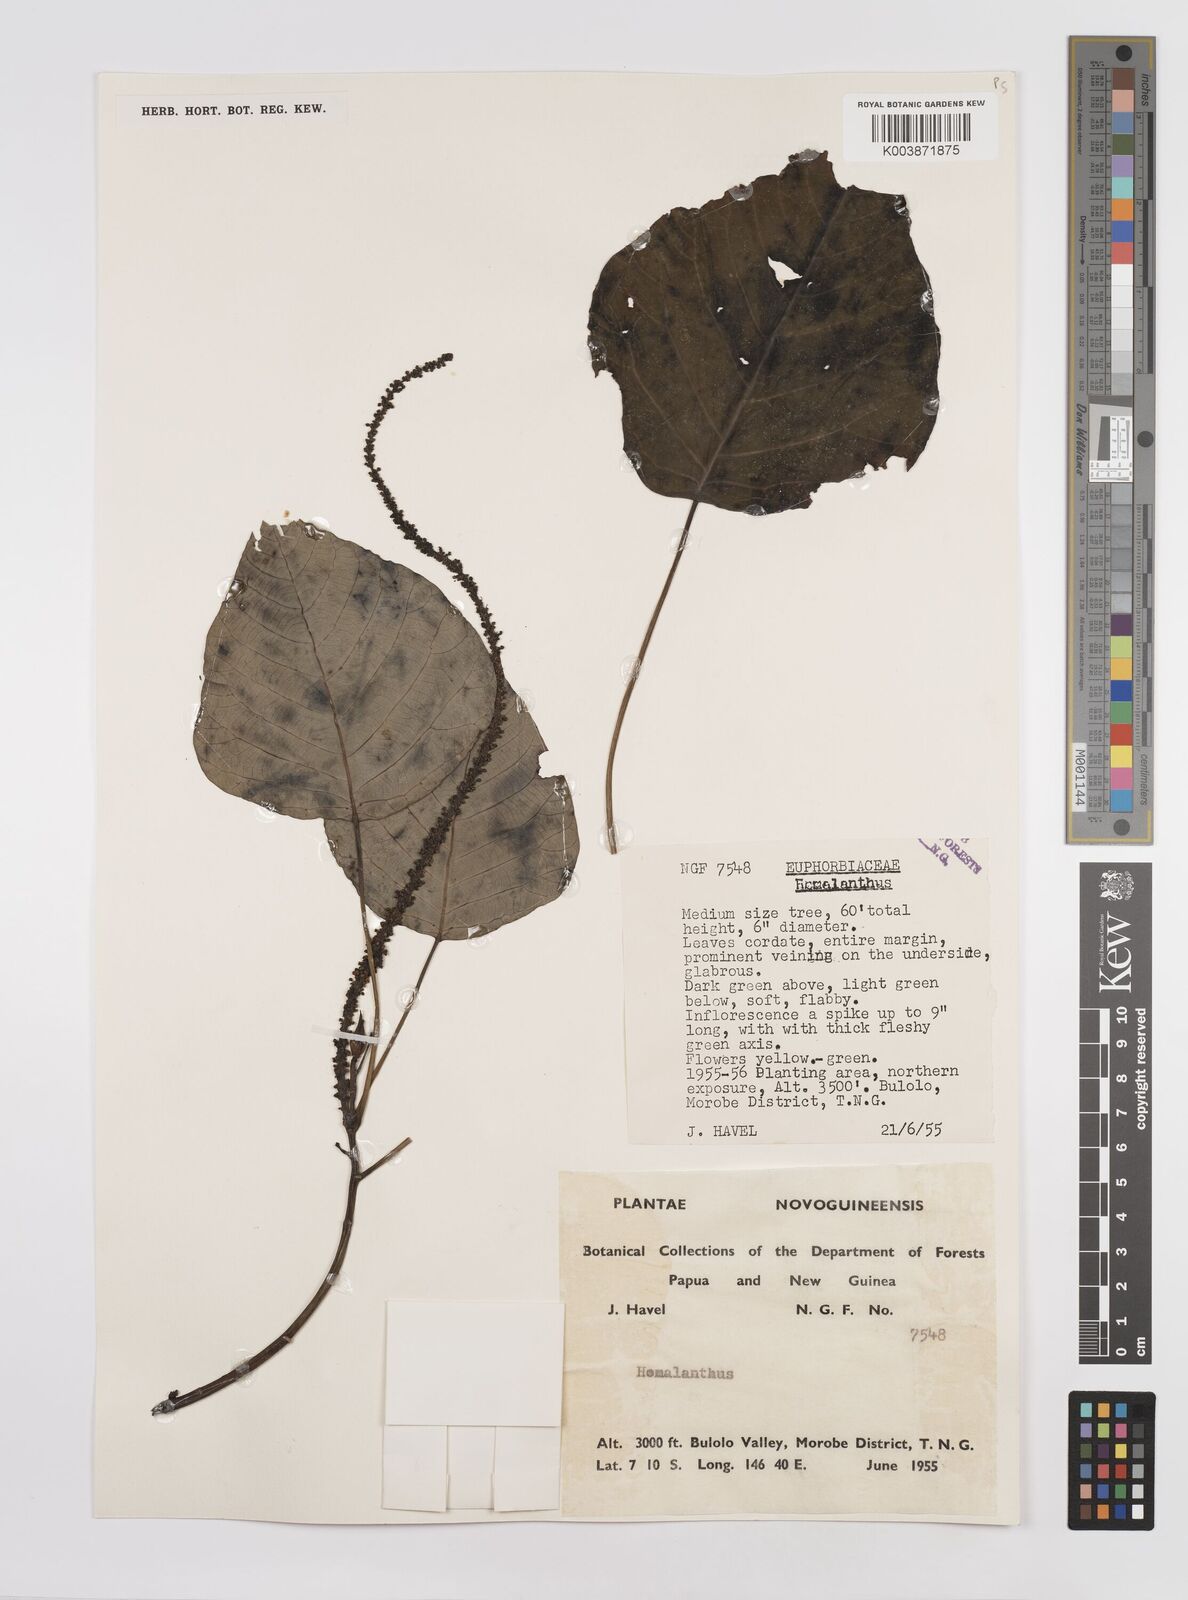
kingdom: Plantae
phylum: Tracheophyta
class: Magnoliopsida
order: Malpighiales
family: Euphorbiaceae
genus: Homalanthus
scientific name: Homalanthus novoguineensis
